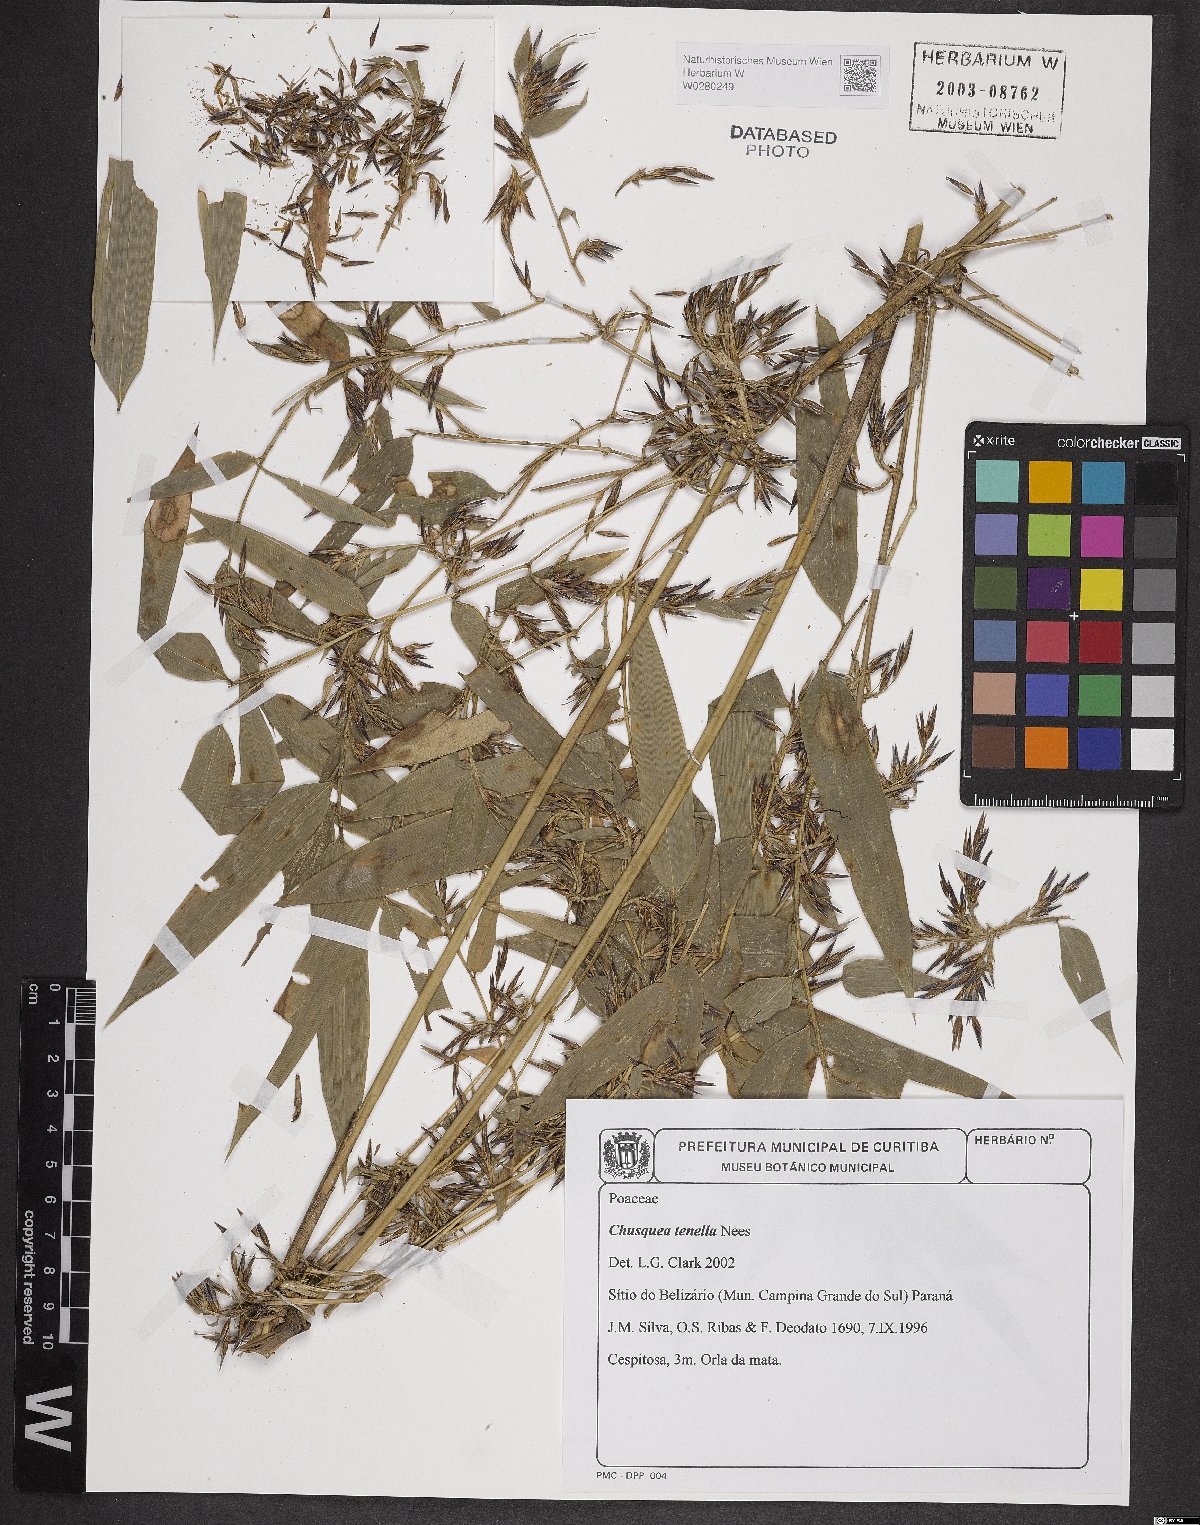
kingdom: Plantae
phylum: Tracheophyta
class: Liliopsida
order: Poales
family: Poaceae
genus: Chusquea
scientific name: Chusquea tenella
